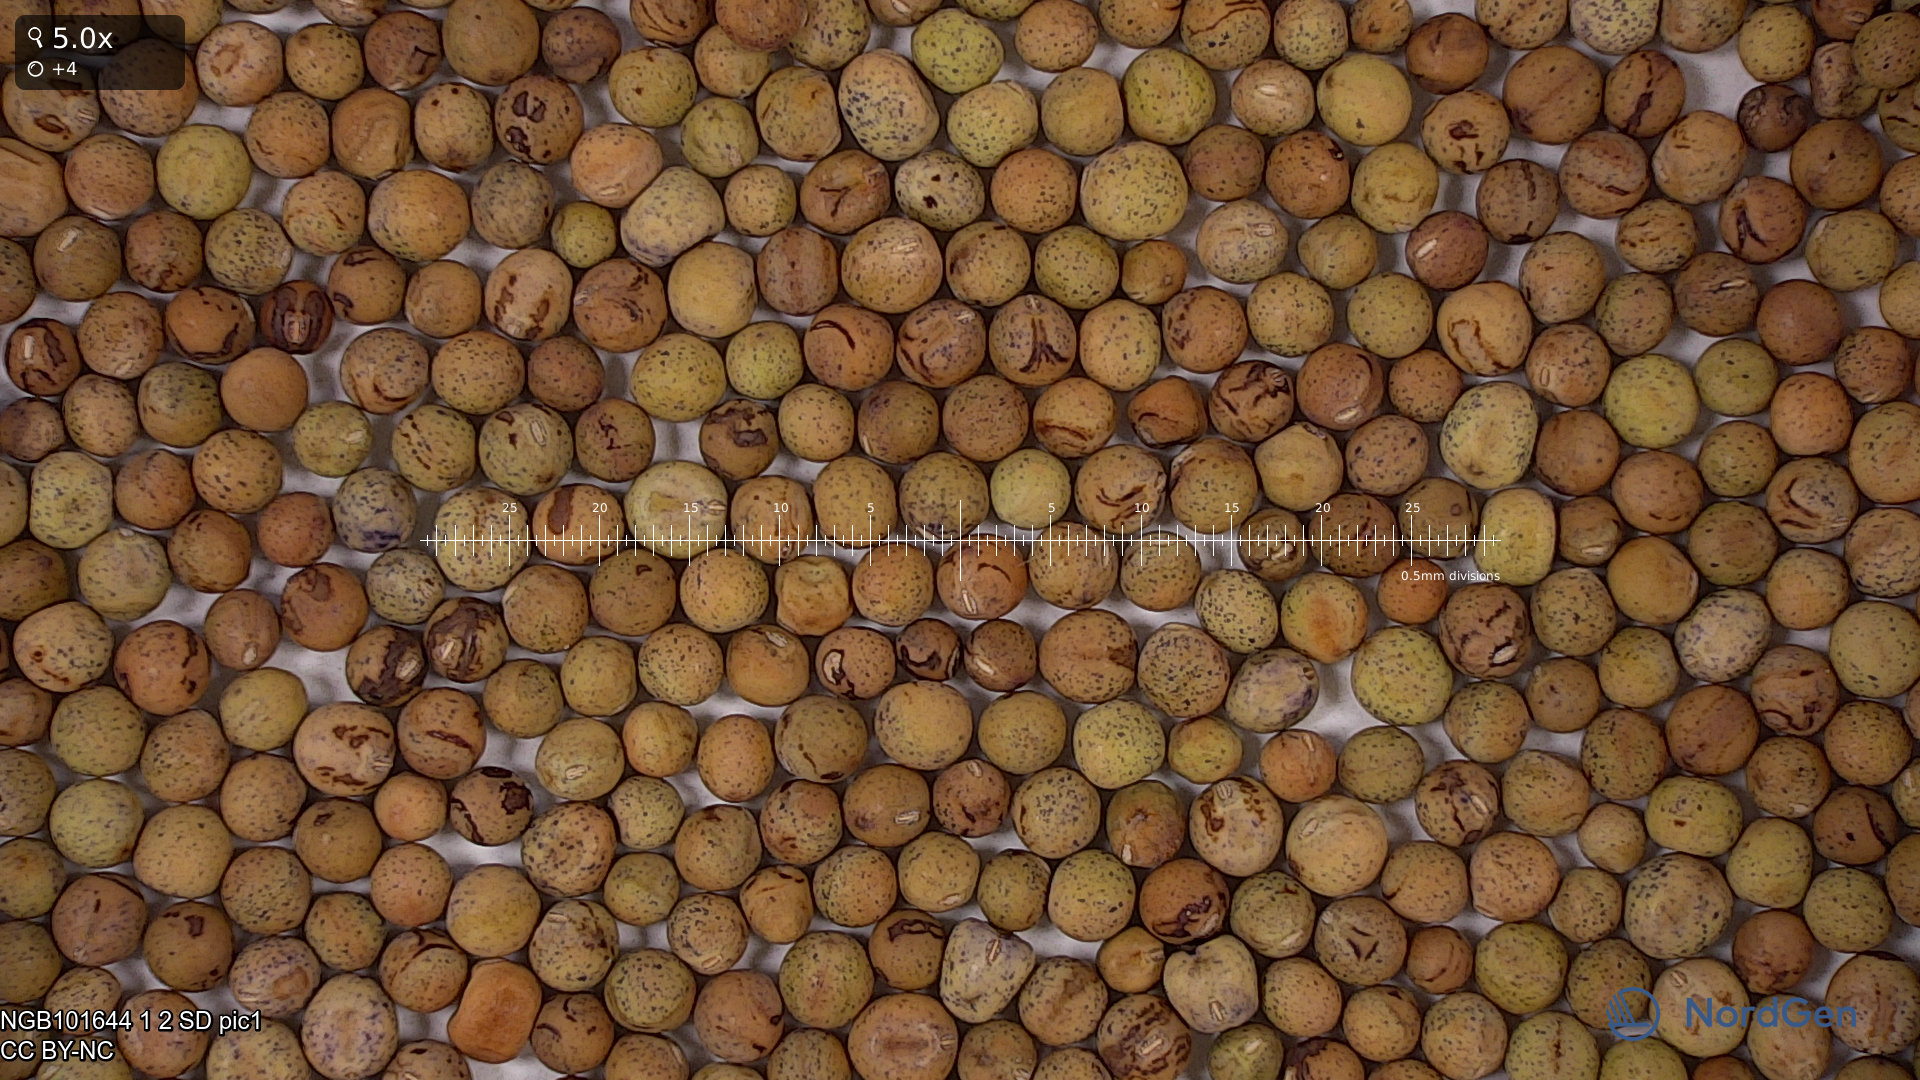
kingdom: Plantae
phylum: Tracheophyta
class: Magnoliopsida
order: Fabales
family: Fabaceae
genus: Lathyrus
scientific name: Lathyrus oleraceus
